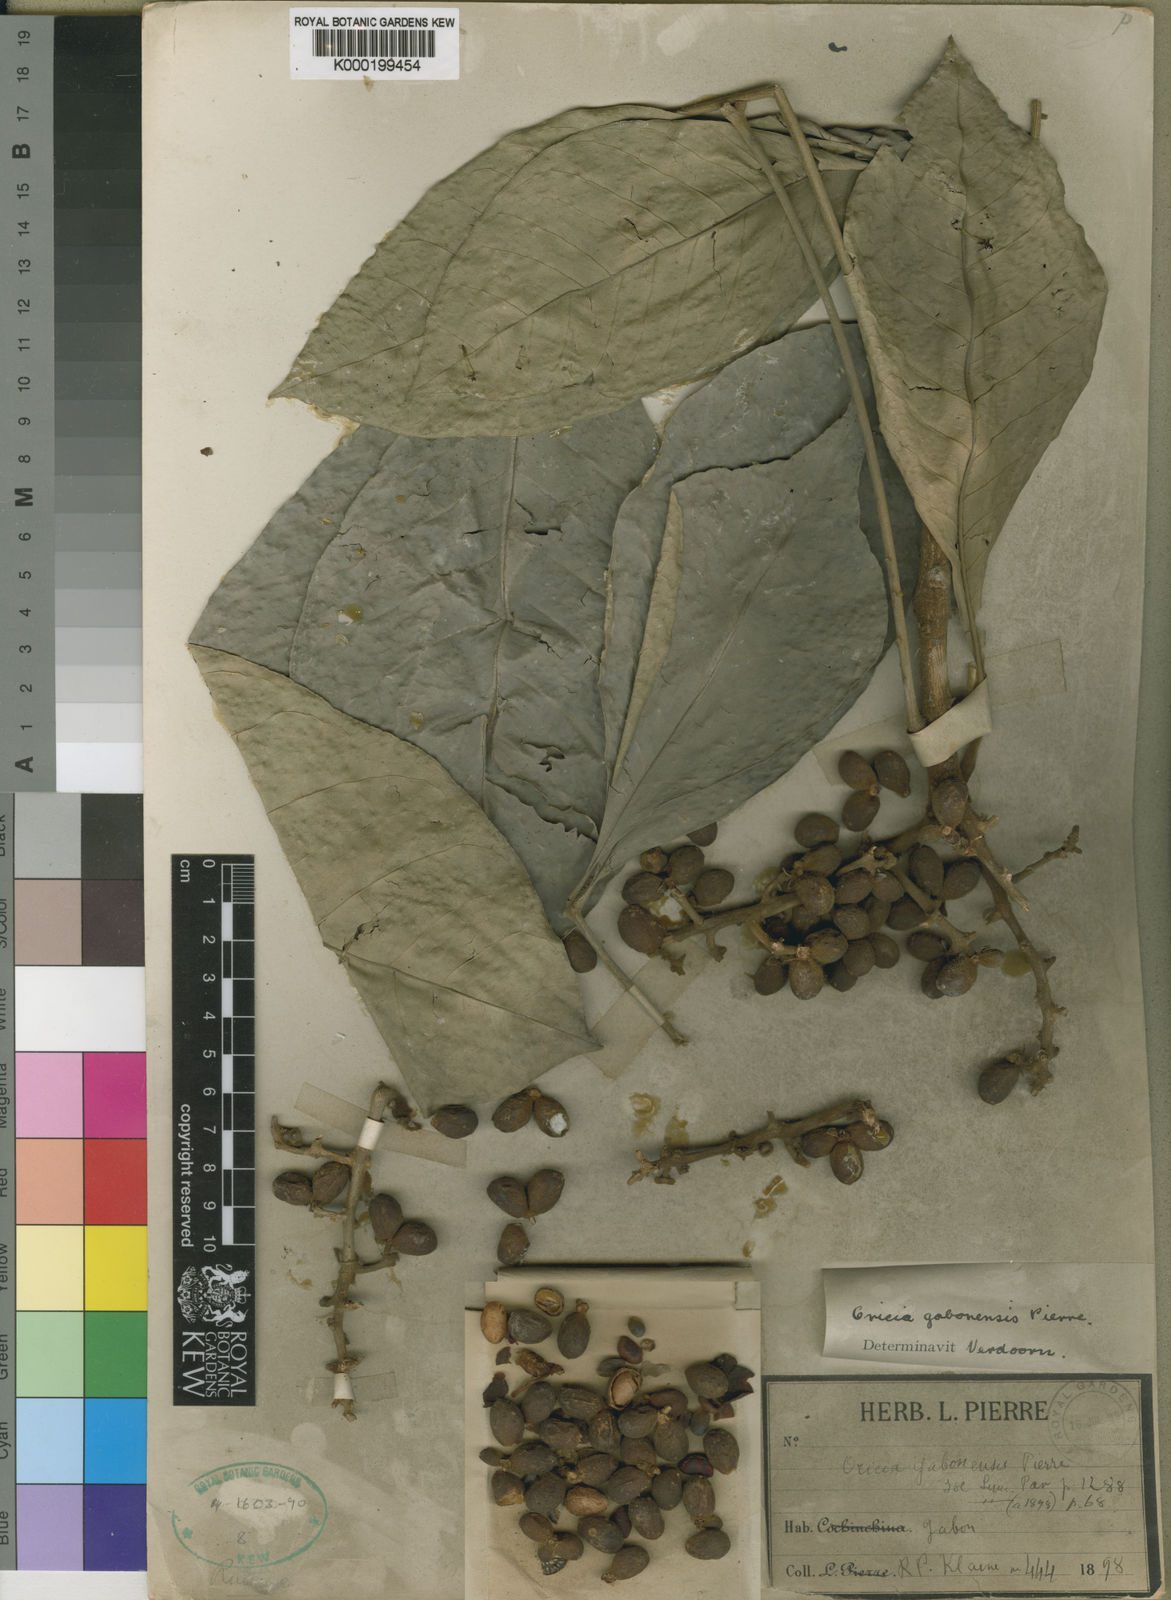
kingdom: Plantae
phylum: Tracheophyta
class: Magnoliopsida
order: Sapindales
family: Rutaceae
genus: Vepris
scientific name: Vepris gabonensis
